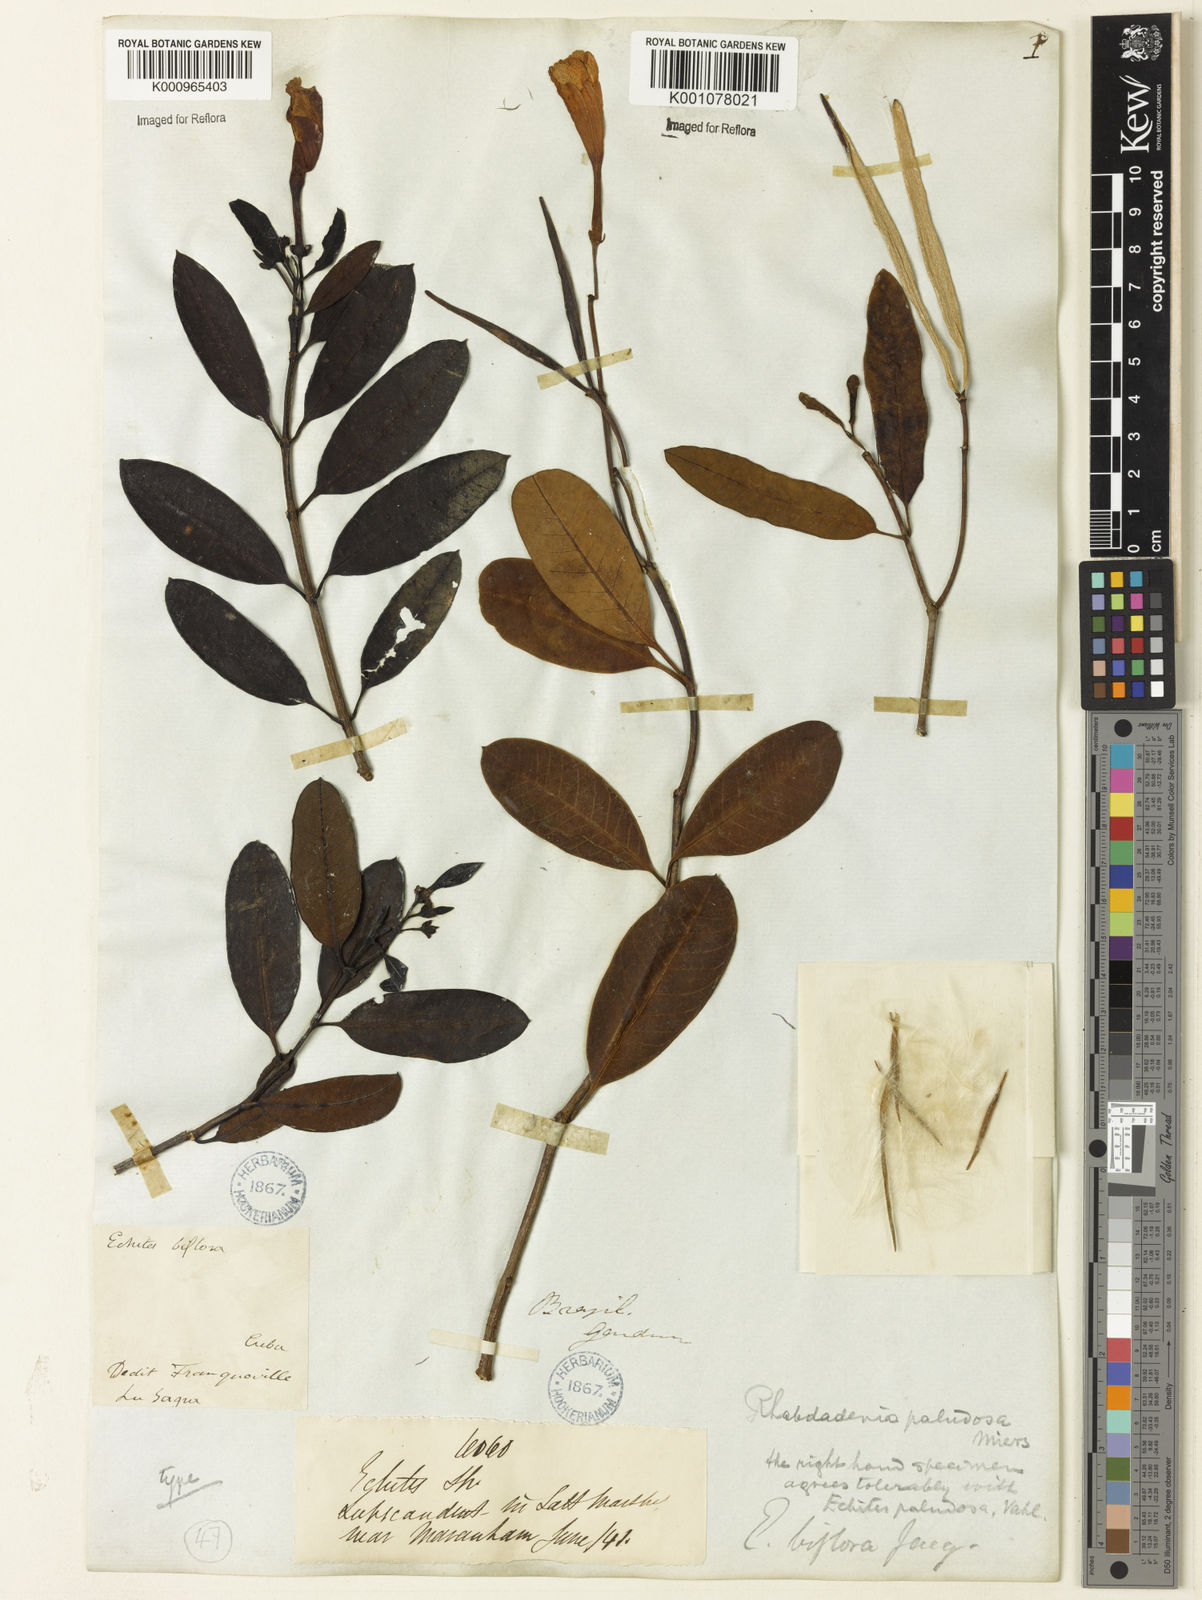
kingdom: Plantae
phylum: Tracheophyta
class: Magnoliopsida
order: Gentianales
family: Apocynaceae
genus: Rhabdadenia
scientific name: Rhabdadenia
